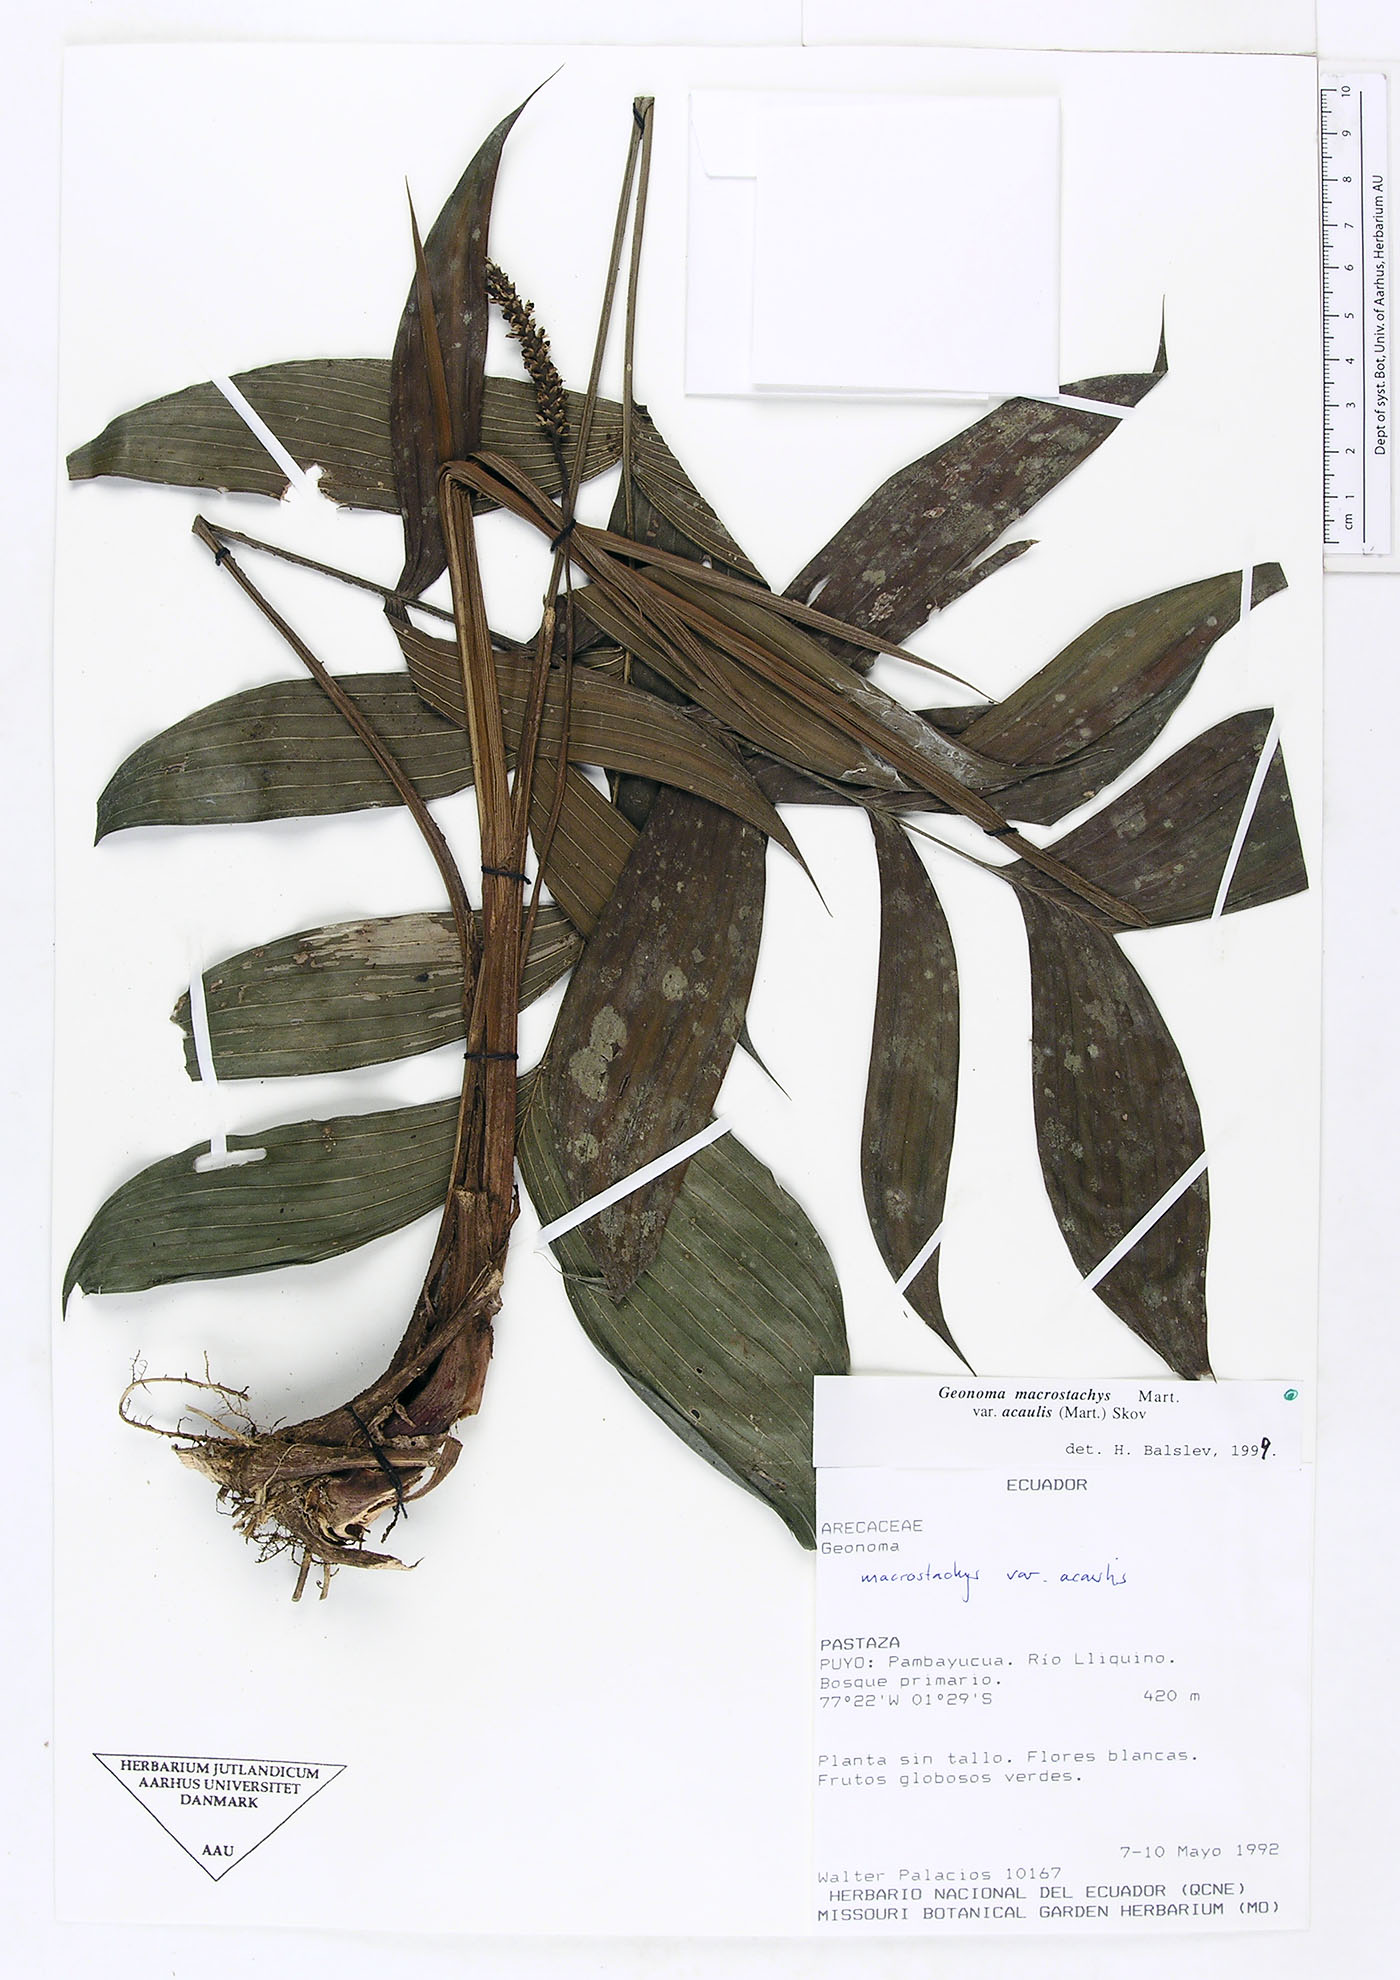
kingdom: Plantae
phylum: Tracheophyta
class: Liliopsida
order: Arecales
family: Arecaceae
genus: Geonoma
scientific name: Geonoma macrostachys
